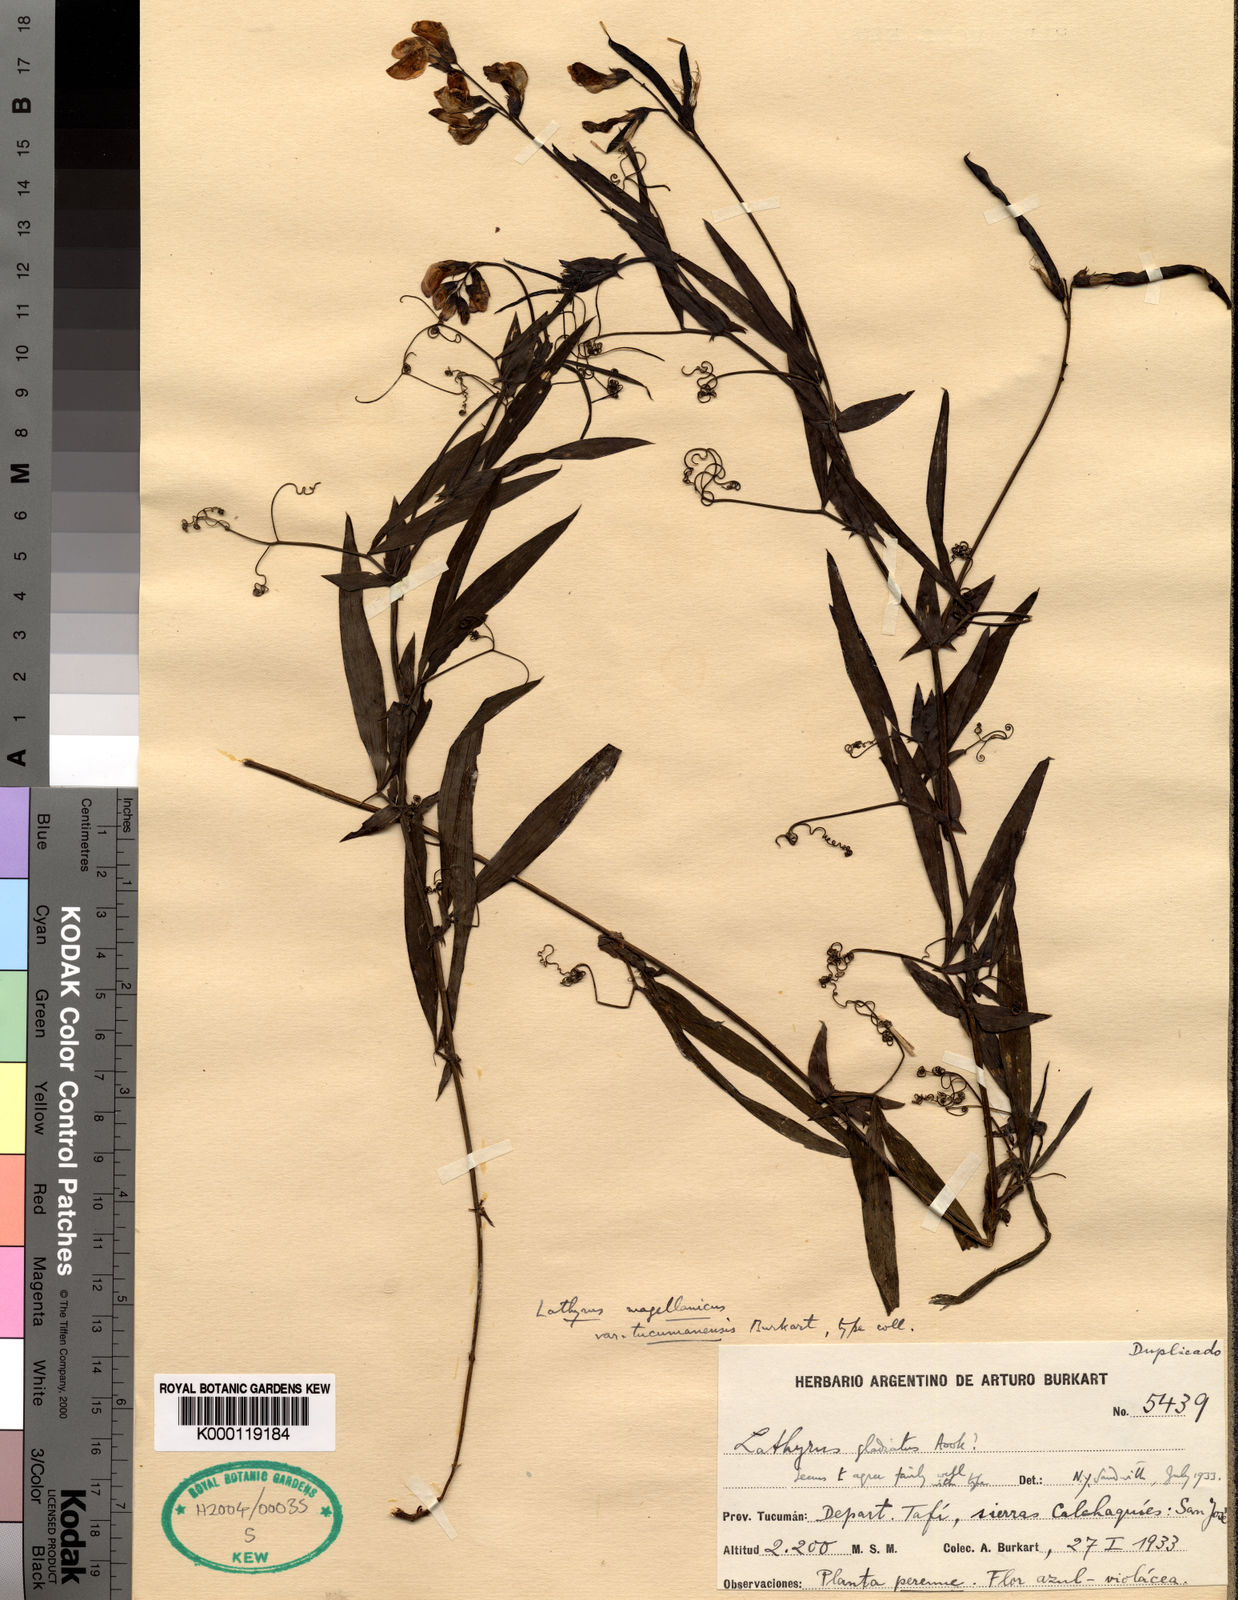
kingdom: Plantae
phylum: Tracheophyta
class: Magnoliopsida
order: Fabales
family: Fabaceae
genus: Lathyrus
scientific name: Lathyrus magellanicus
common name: Lord anson's pea
